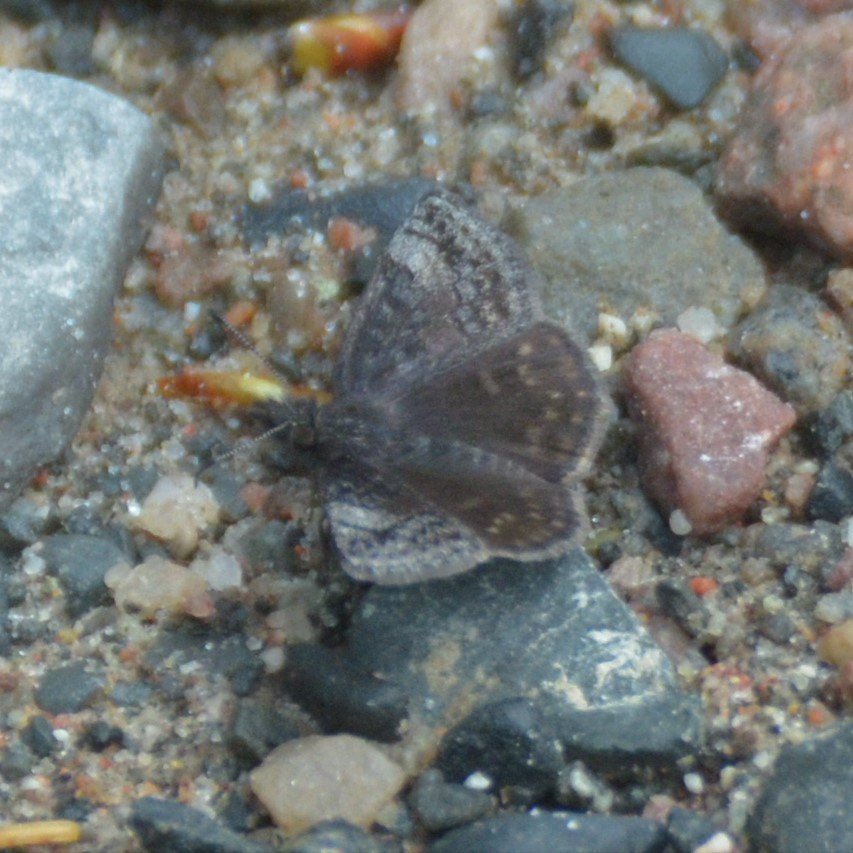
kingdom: Animalia
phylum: Arthropoda
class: Insecta
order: Lepidoptera
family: Hesperiidae
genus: Erynnis
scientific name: Erynnis icelus
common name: Dreamy Duskywing
